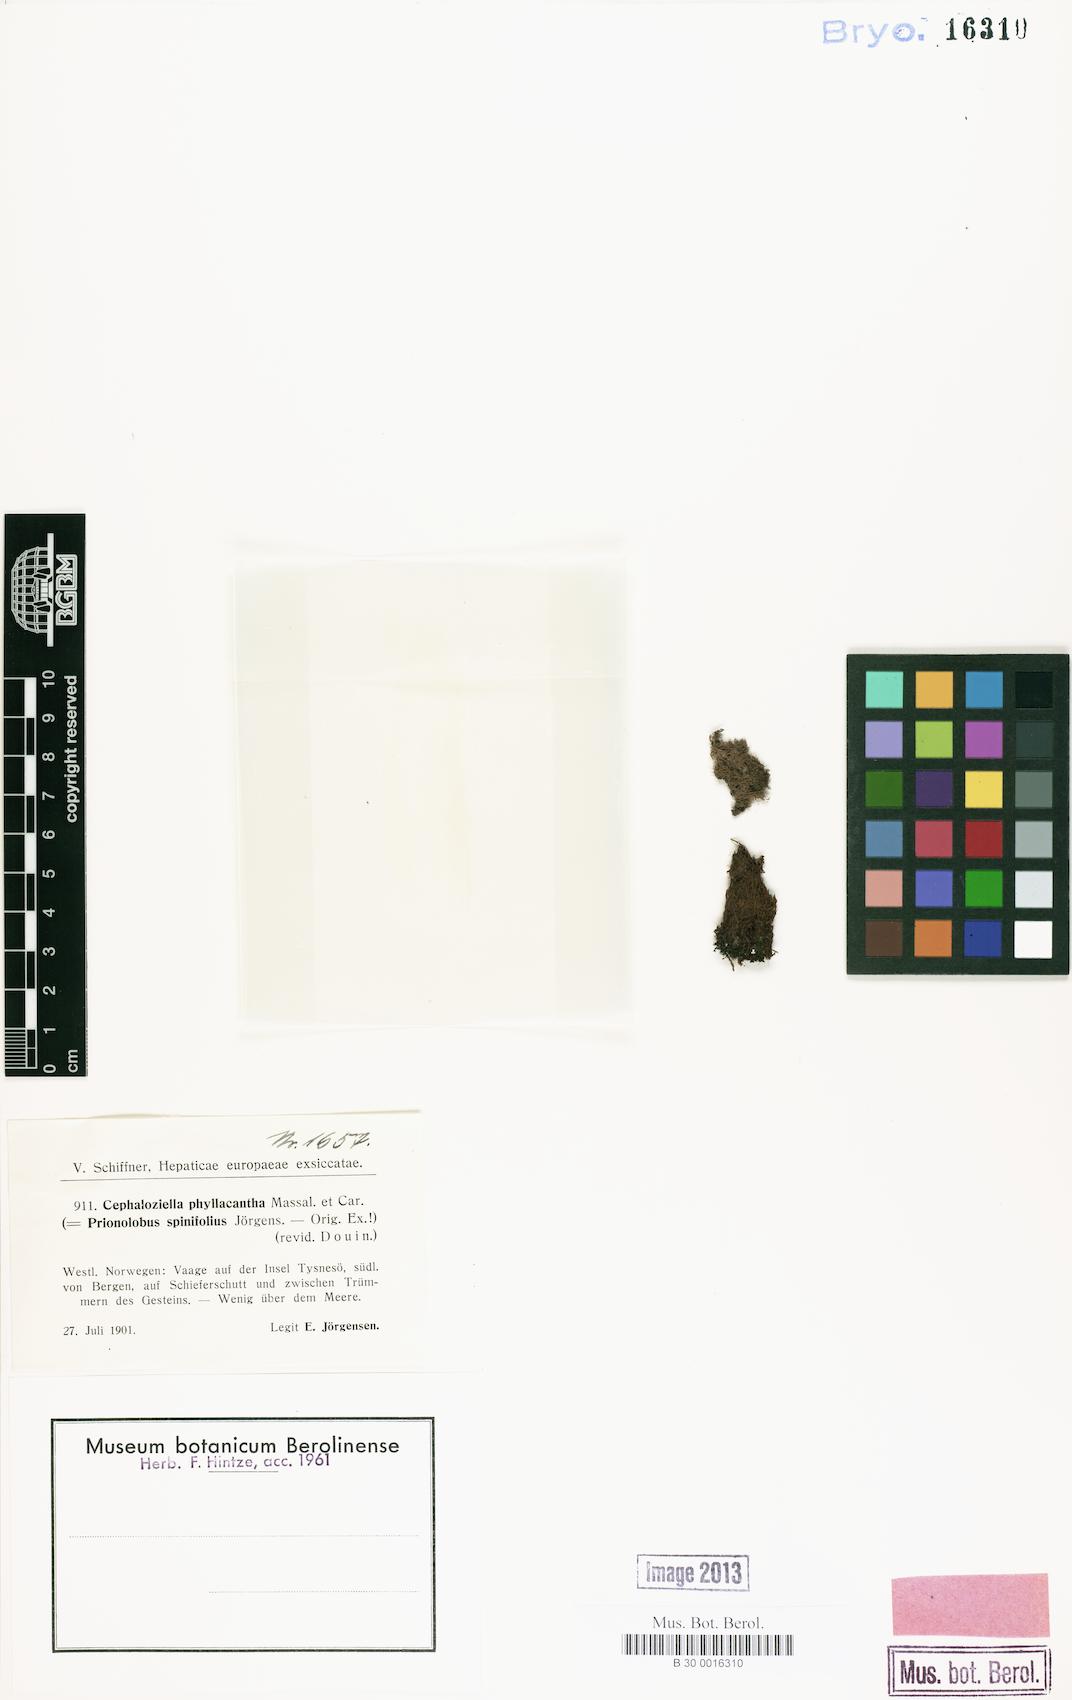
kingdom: Plantae
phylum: Marchantiophyta
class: Jungermanniopsida
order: Jungermanniales
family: Cephaloziellaceae
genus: Cephaloziella
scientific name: Cephaloziella phyllacantha
